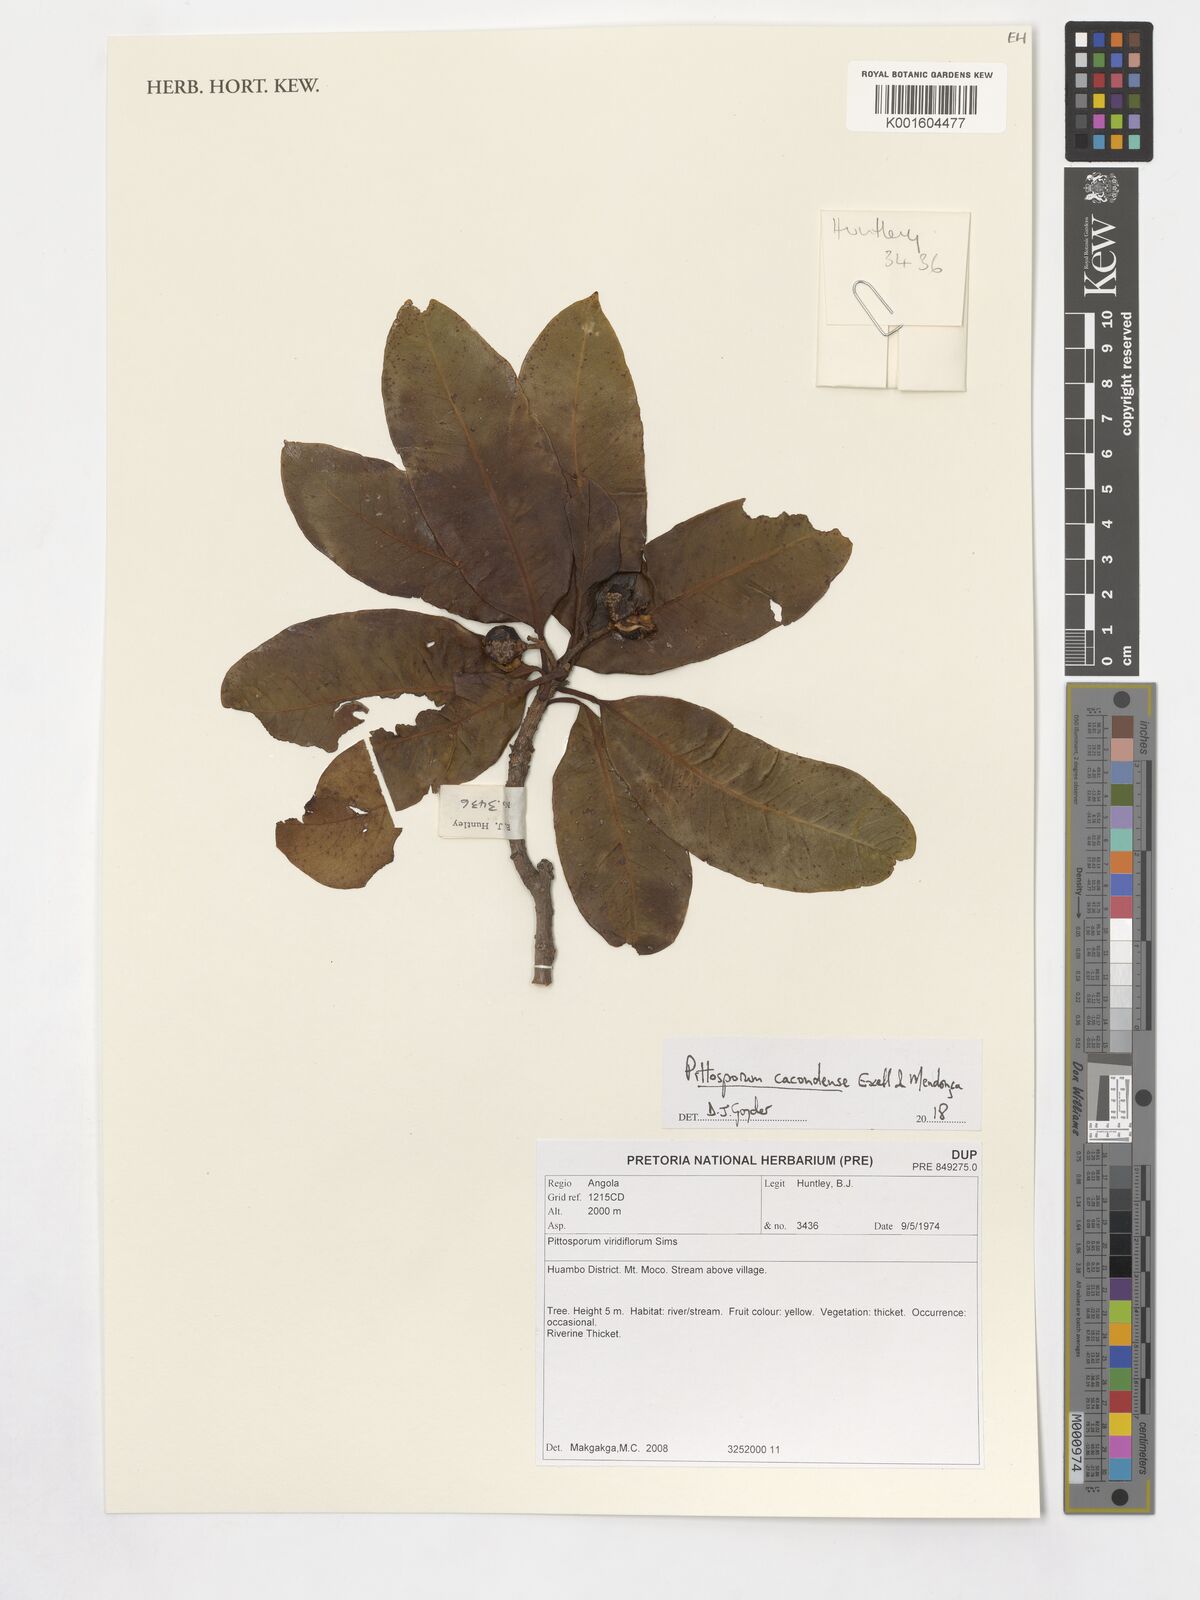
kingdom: Plantae
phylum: Tracheophyta
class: Magnoliopsida
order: Apiales
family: Pittosporaceae
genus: Pittosporum
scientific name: Pittosporum viridiflorum
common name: Cape cheesewood
